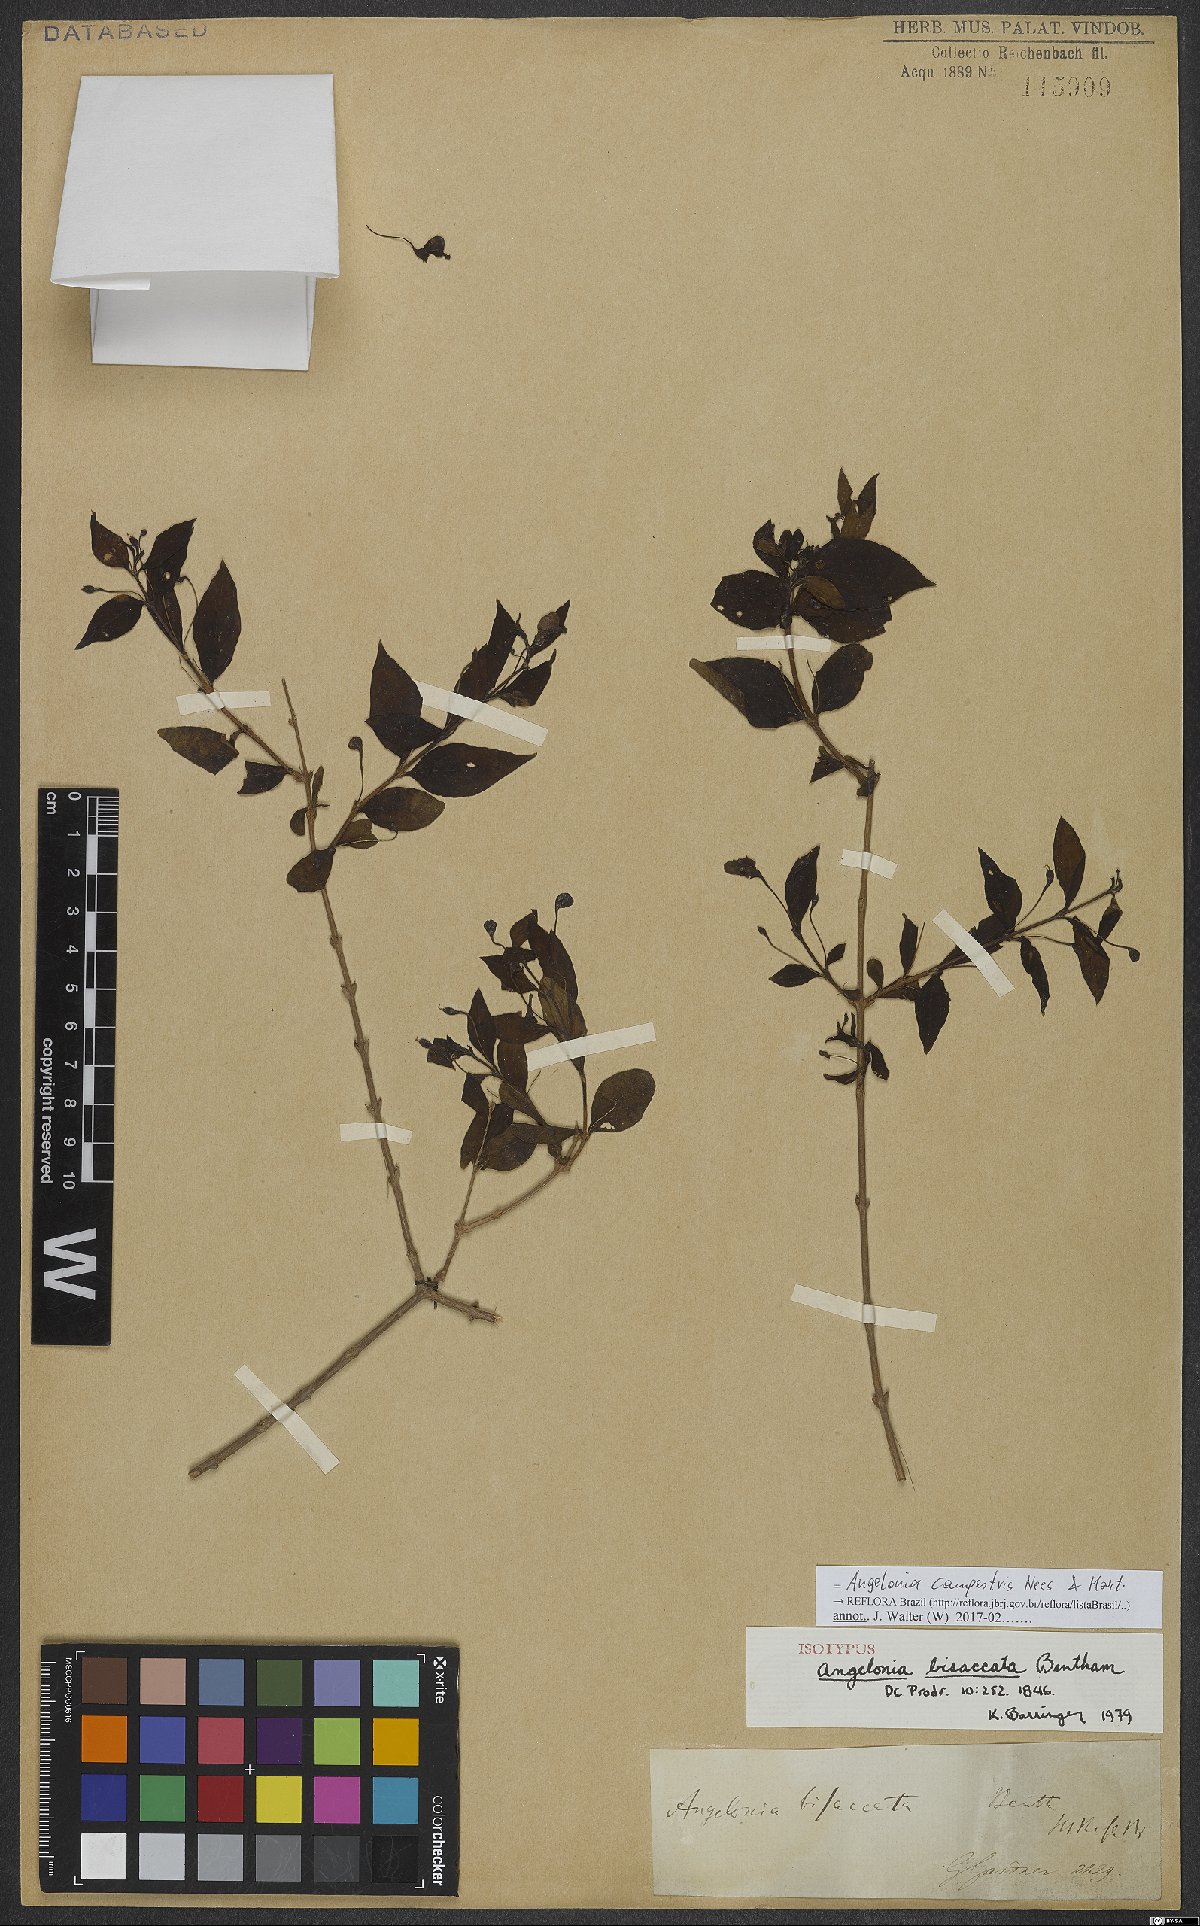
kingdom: Plantae
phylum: Tracheophyta
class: Magnoliopsida
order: Lamiales
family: Plantaginaceae
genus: Angelonia
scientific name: Angelonia campestris
